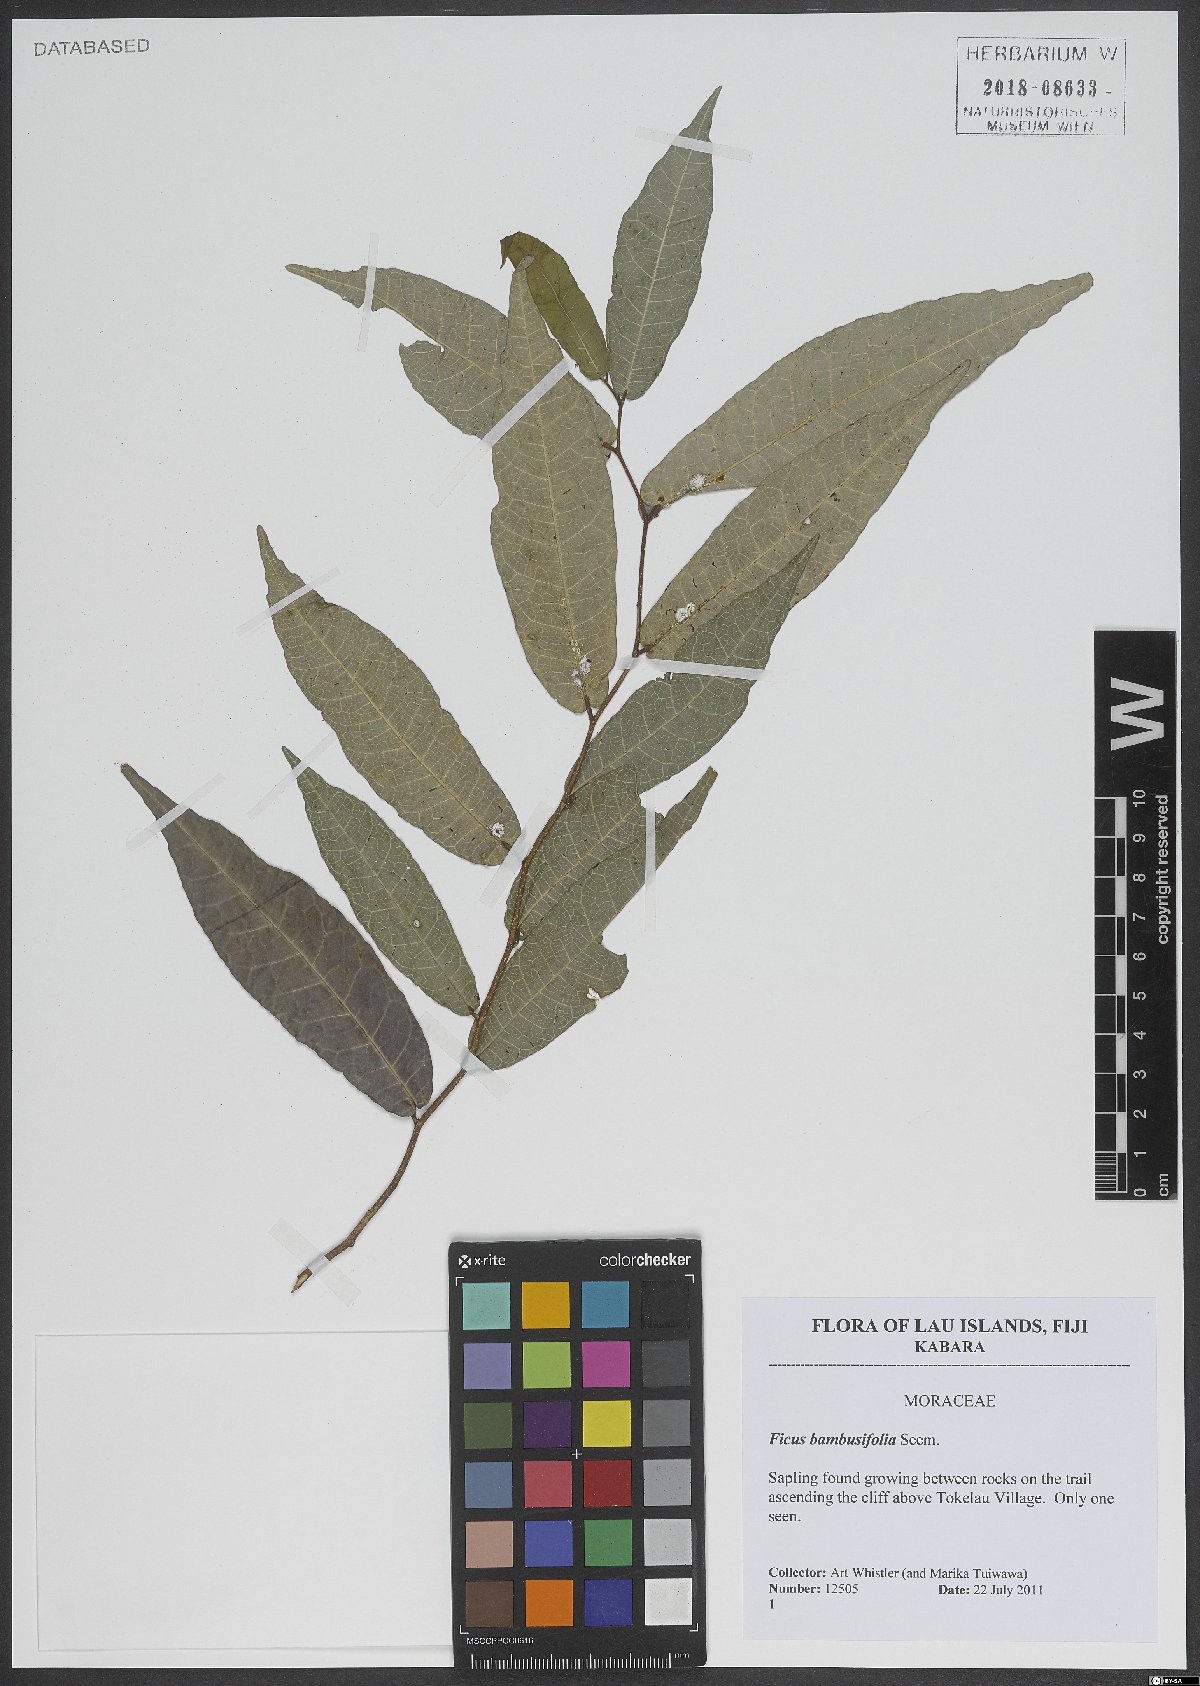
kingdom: Plantae
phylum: Tracheophyta
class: Magnoliopsida
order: Rosales
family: Moraceae
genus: Ficus
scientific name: Ficus bambusifolia
